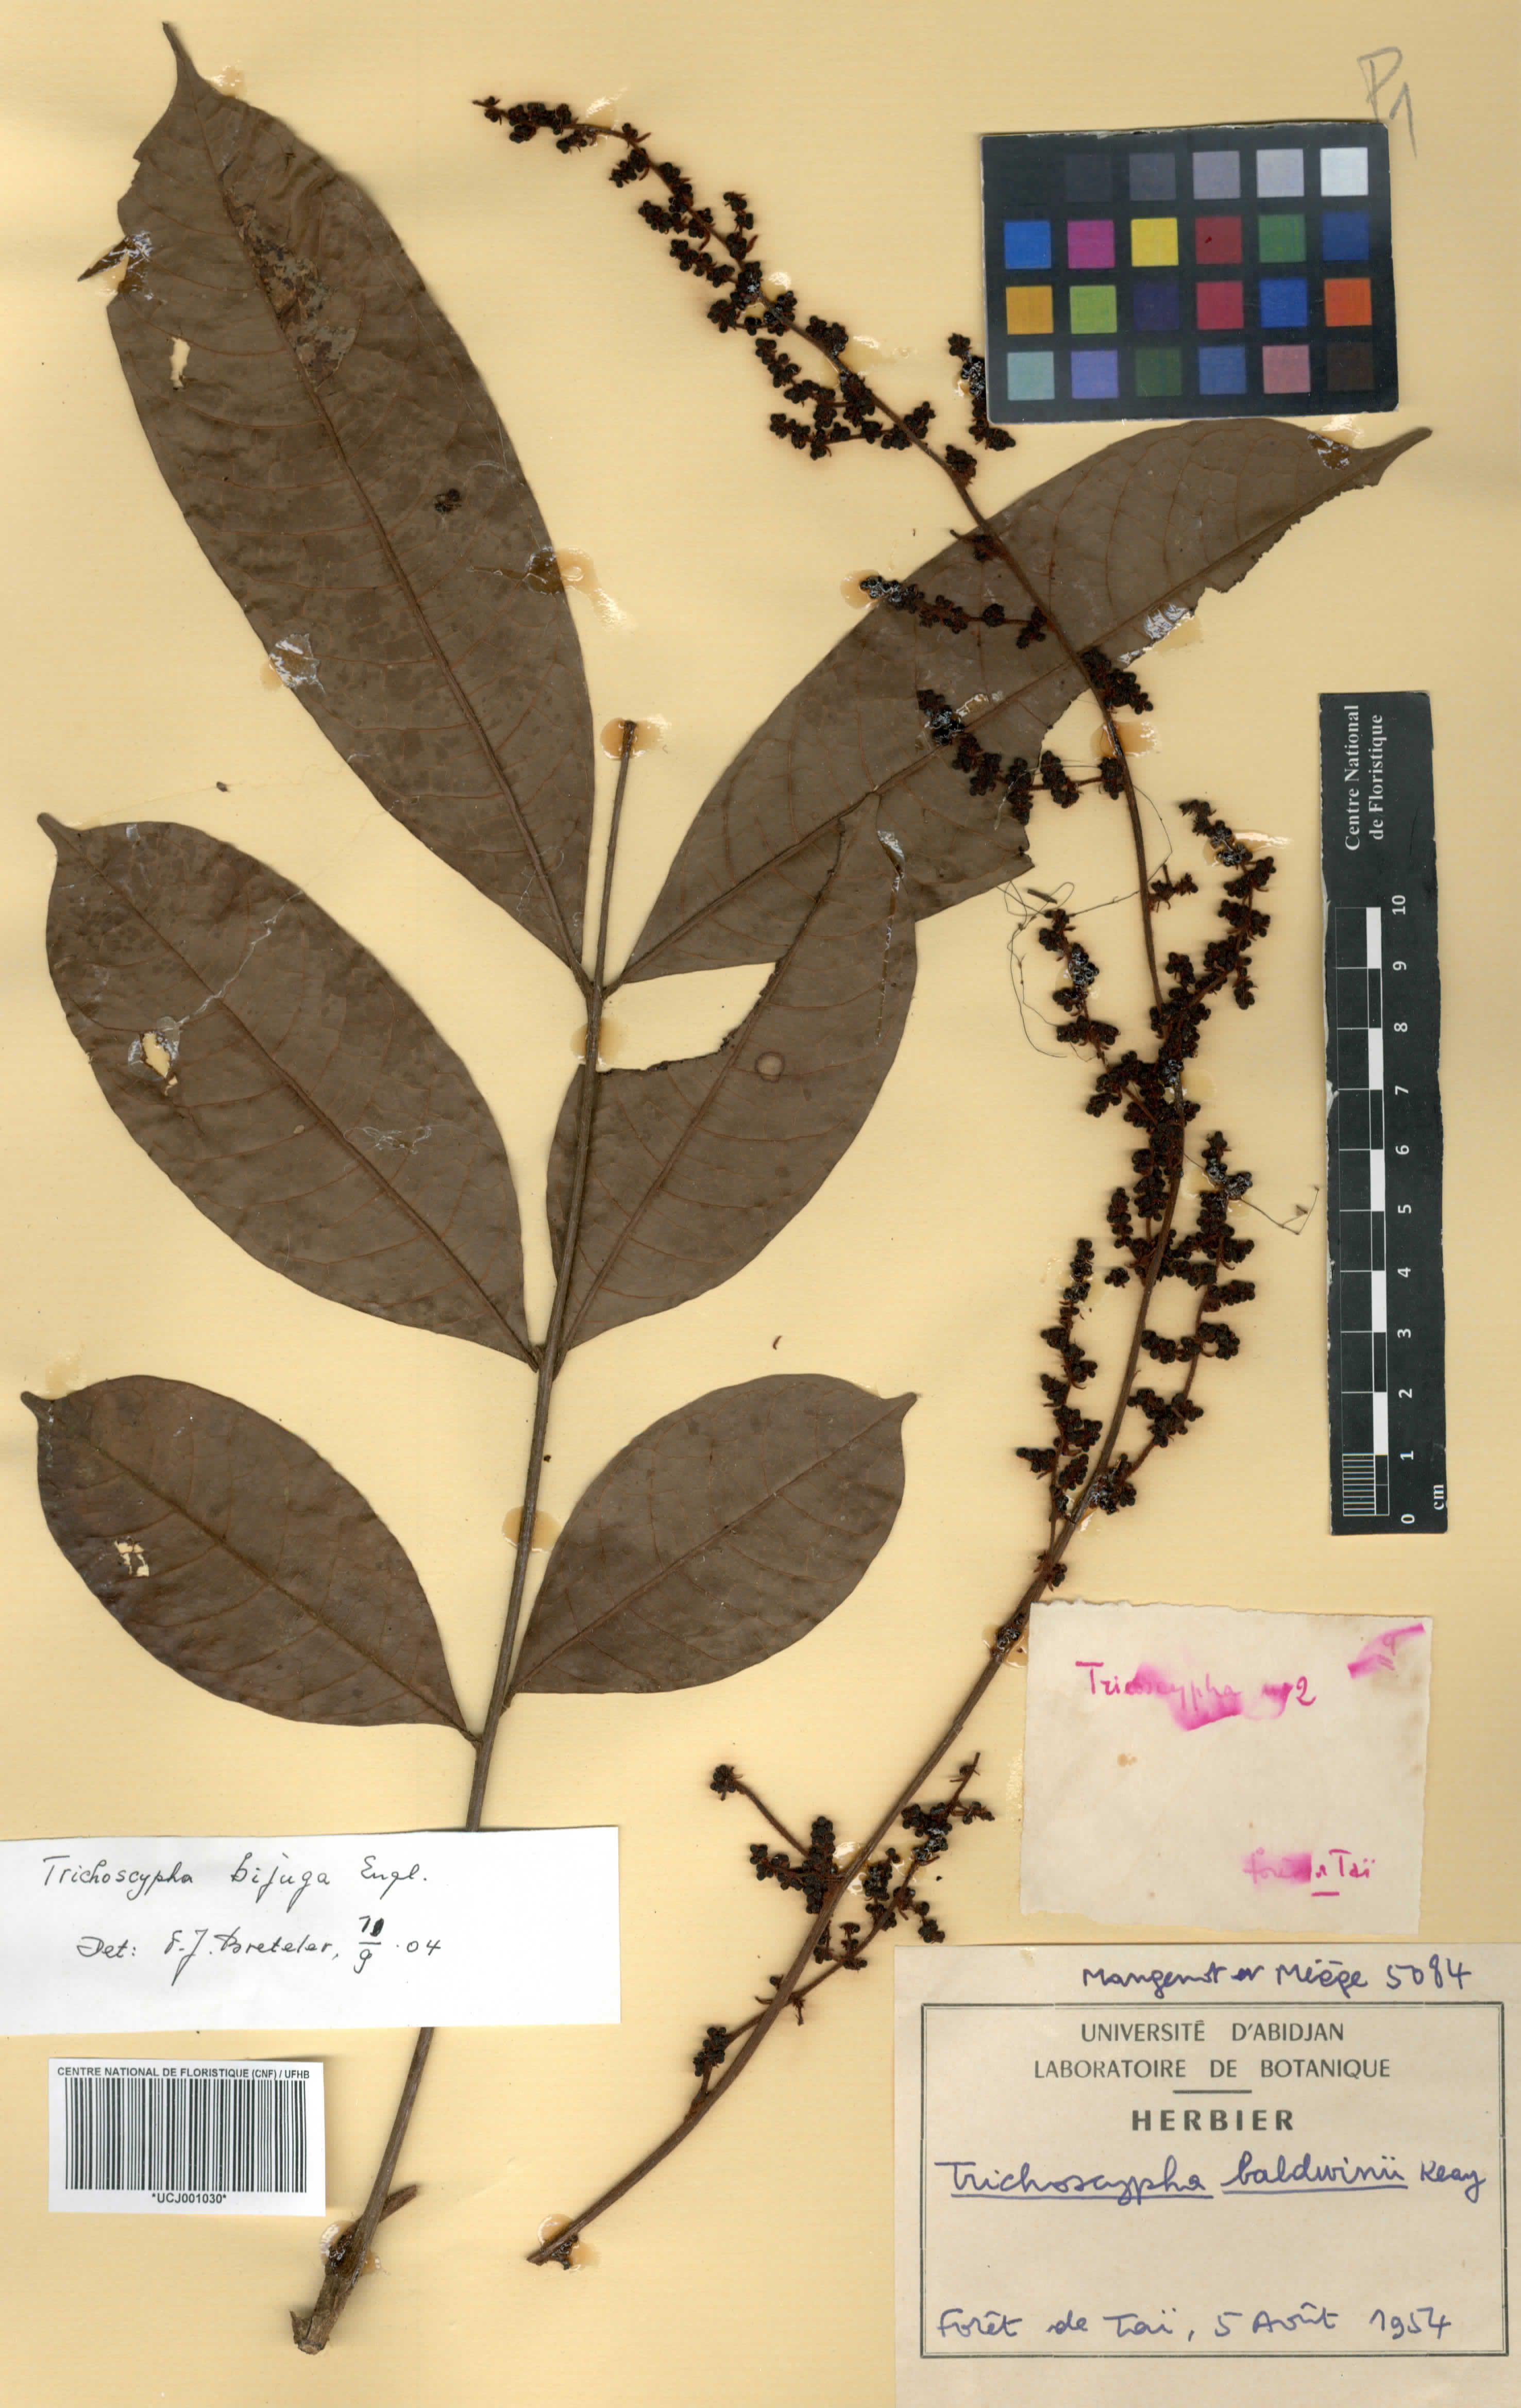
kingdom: Plantae
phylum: Tracheophyta
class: Magnoliopsida
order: Sapindales
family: Anacardiaceae
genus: Trichoscypha
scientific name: Trichoscypha baldwinii
